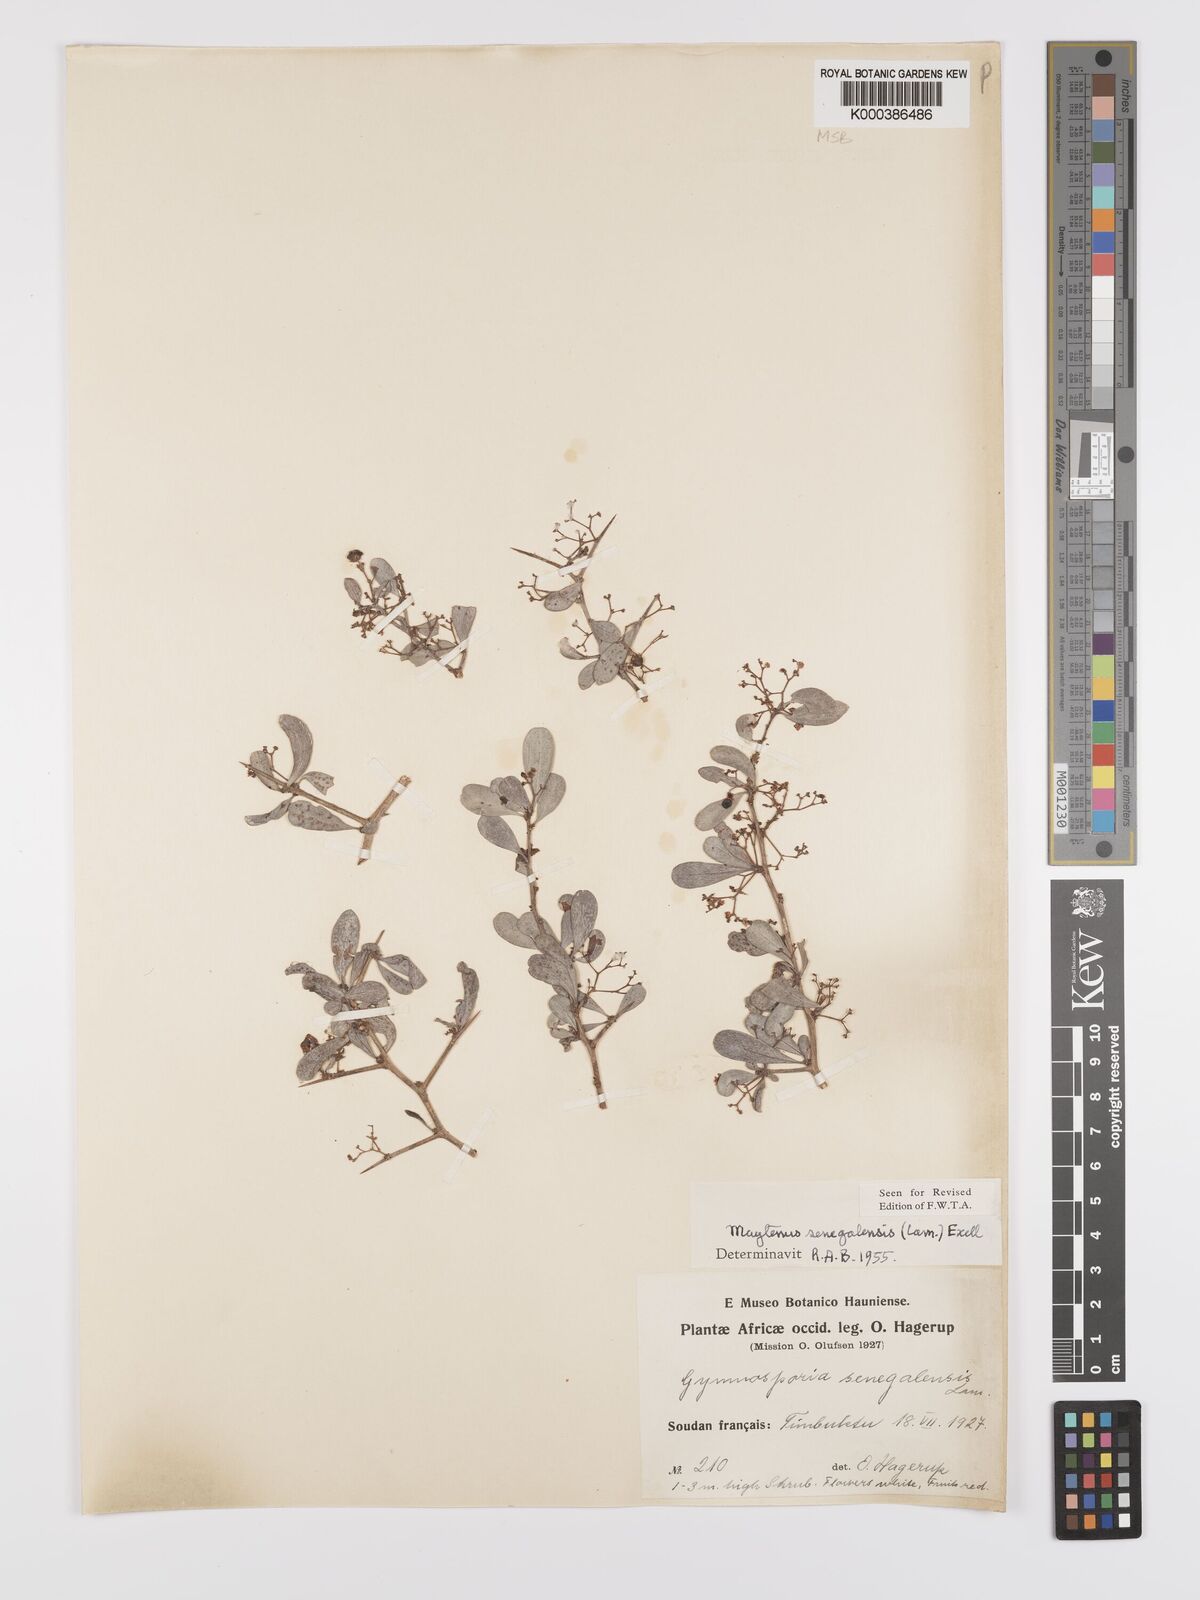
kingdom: Plantae
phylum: Tracheophyta
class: Magnoliopsida
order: Celastrales
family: Celastraceae
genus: Gymnosporia
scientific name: Gymnosporia senegalensis
